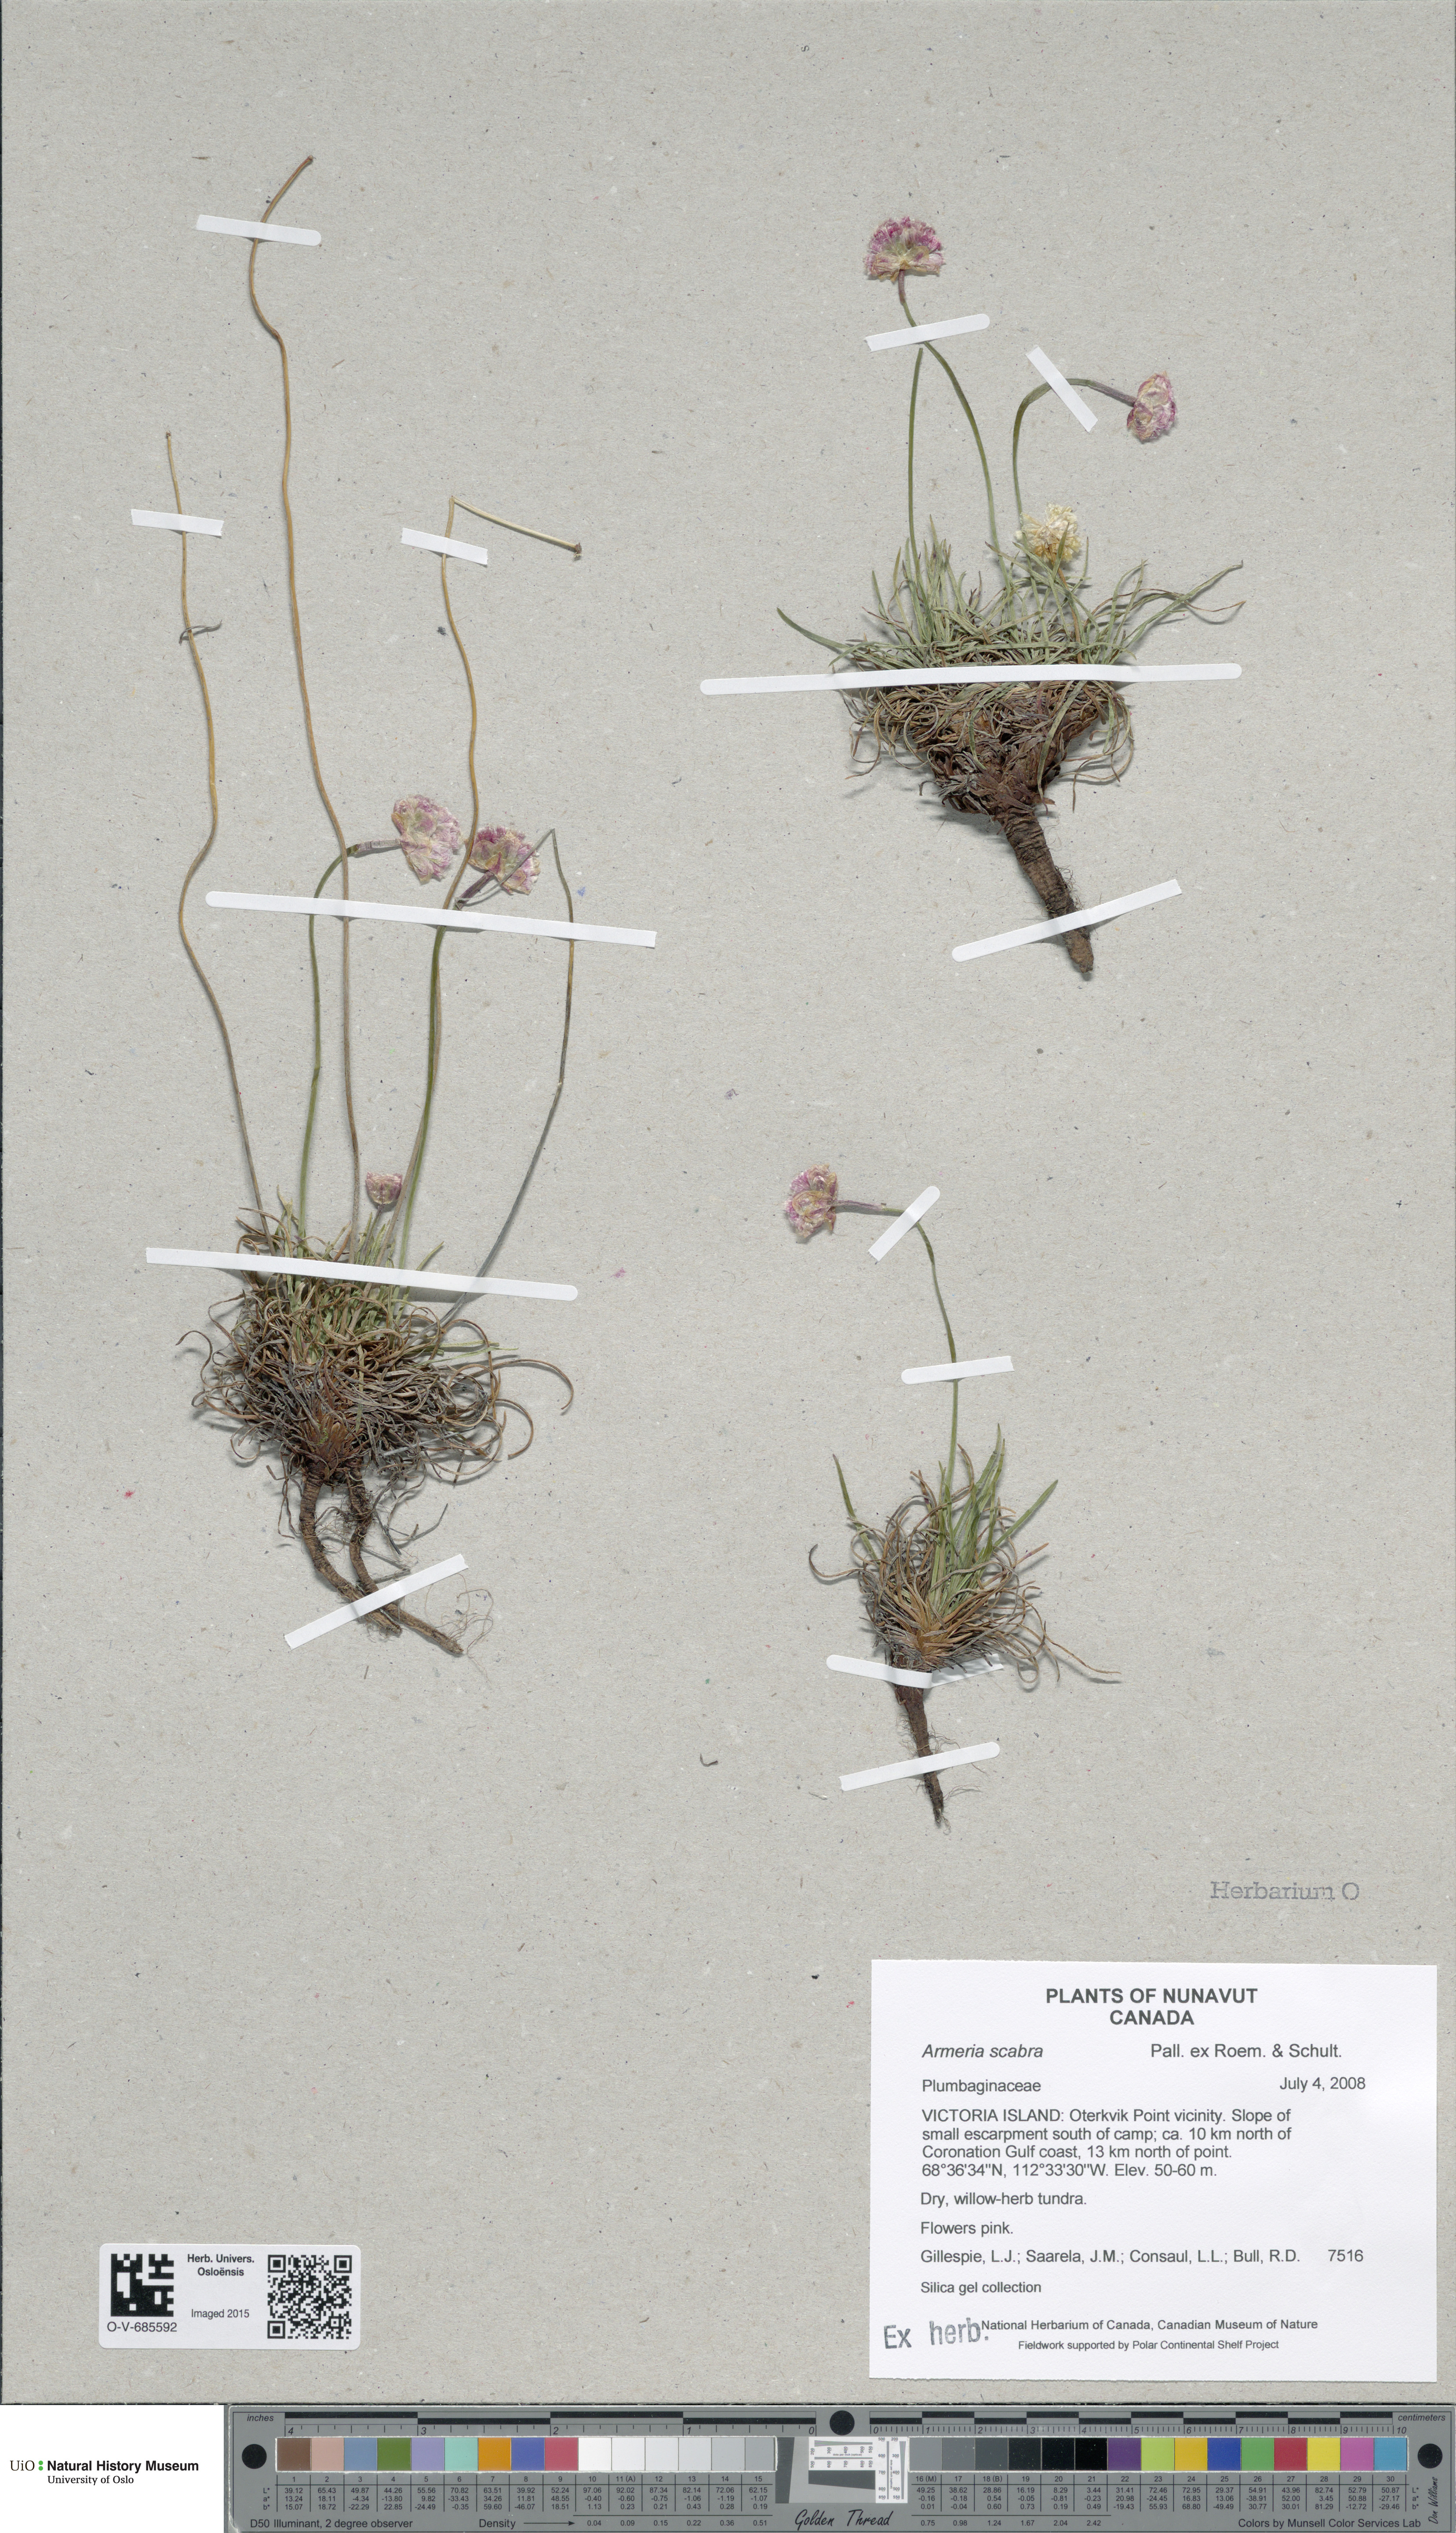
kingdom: Plantae
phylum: Tracheophyta
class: Magnoliopsida
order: Caryophyllales
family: Plumbaginaceae
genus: Armeria
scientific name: Armeria maritima
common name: Thrift
